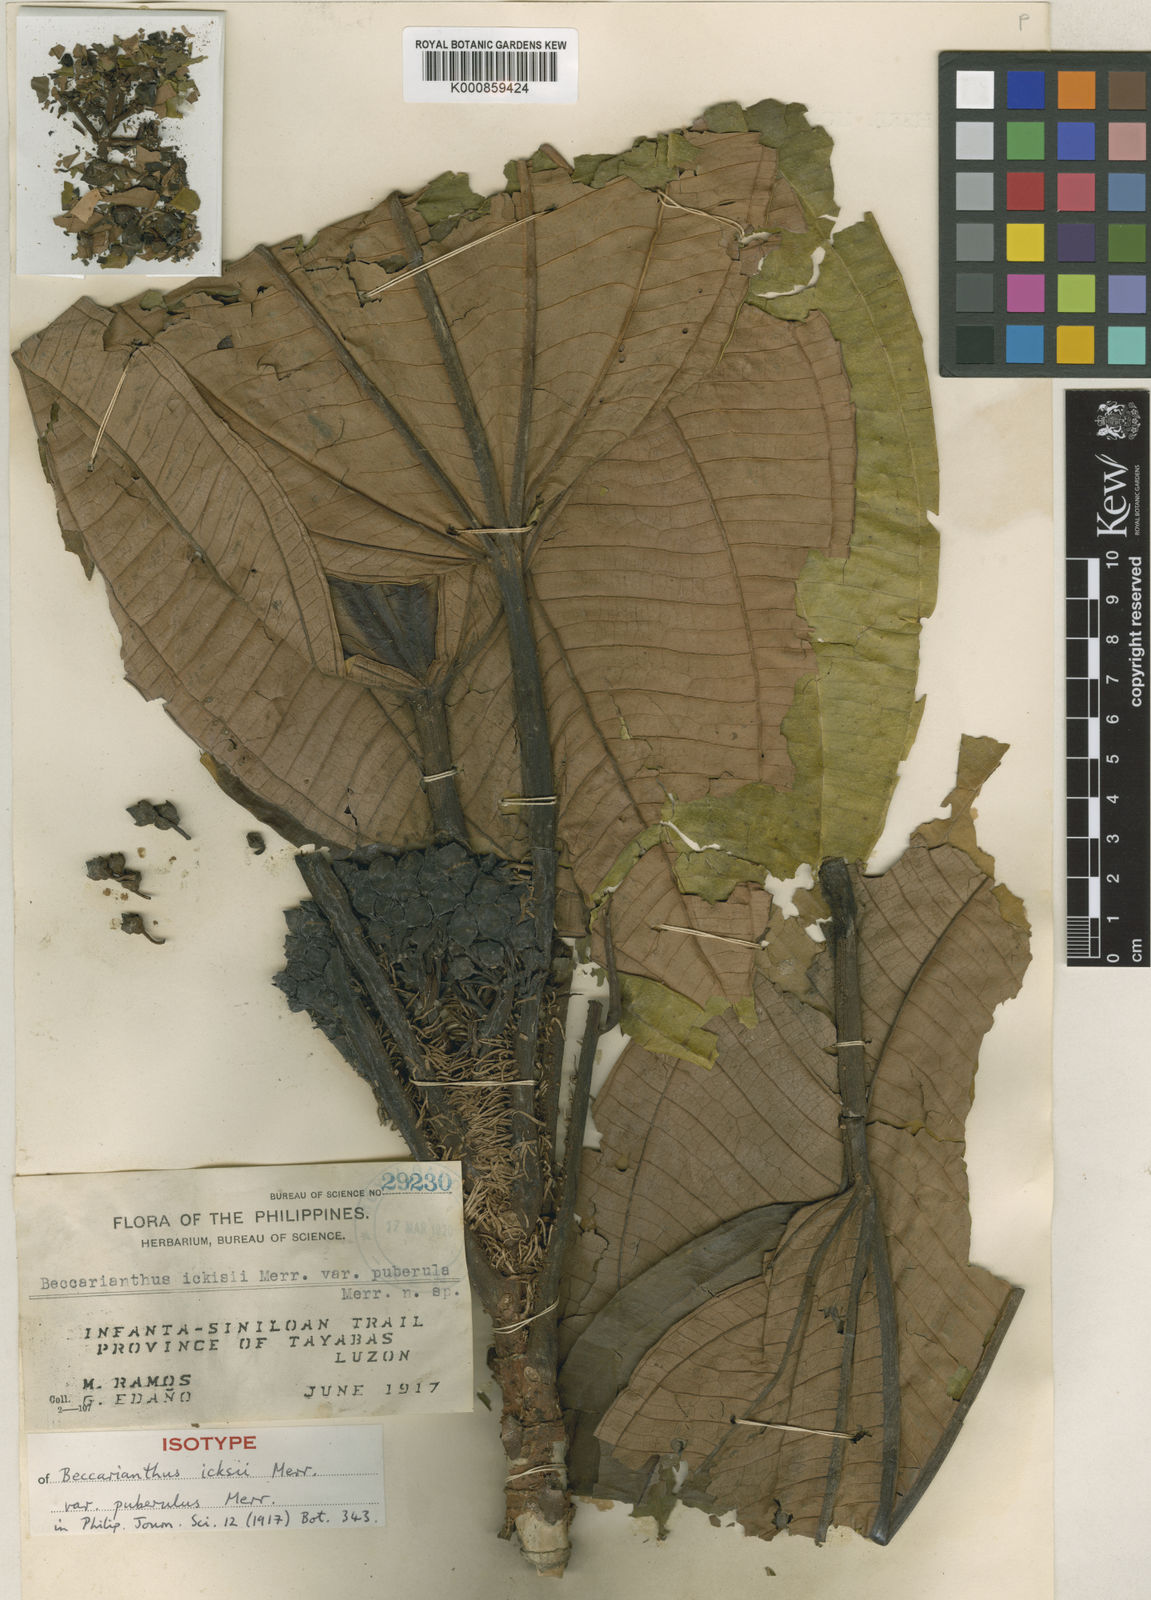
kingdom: Plantae
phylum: Tracheophyta
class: Magnoliopsida
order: Myrtales
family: Melastomataceae
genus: Beccarianthus
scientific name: Beccarianthus ickisii
